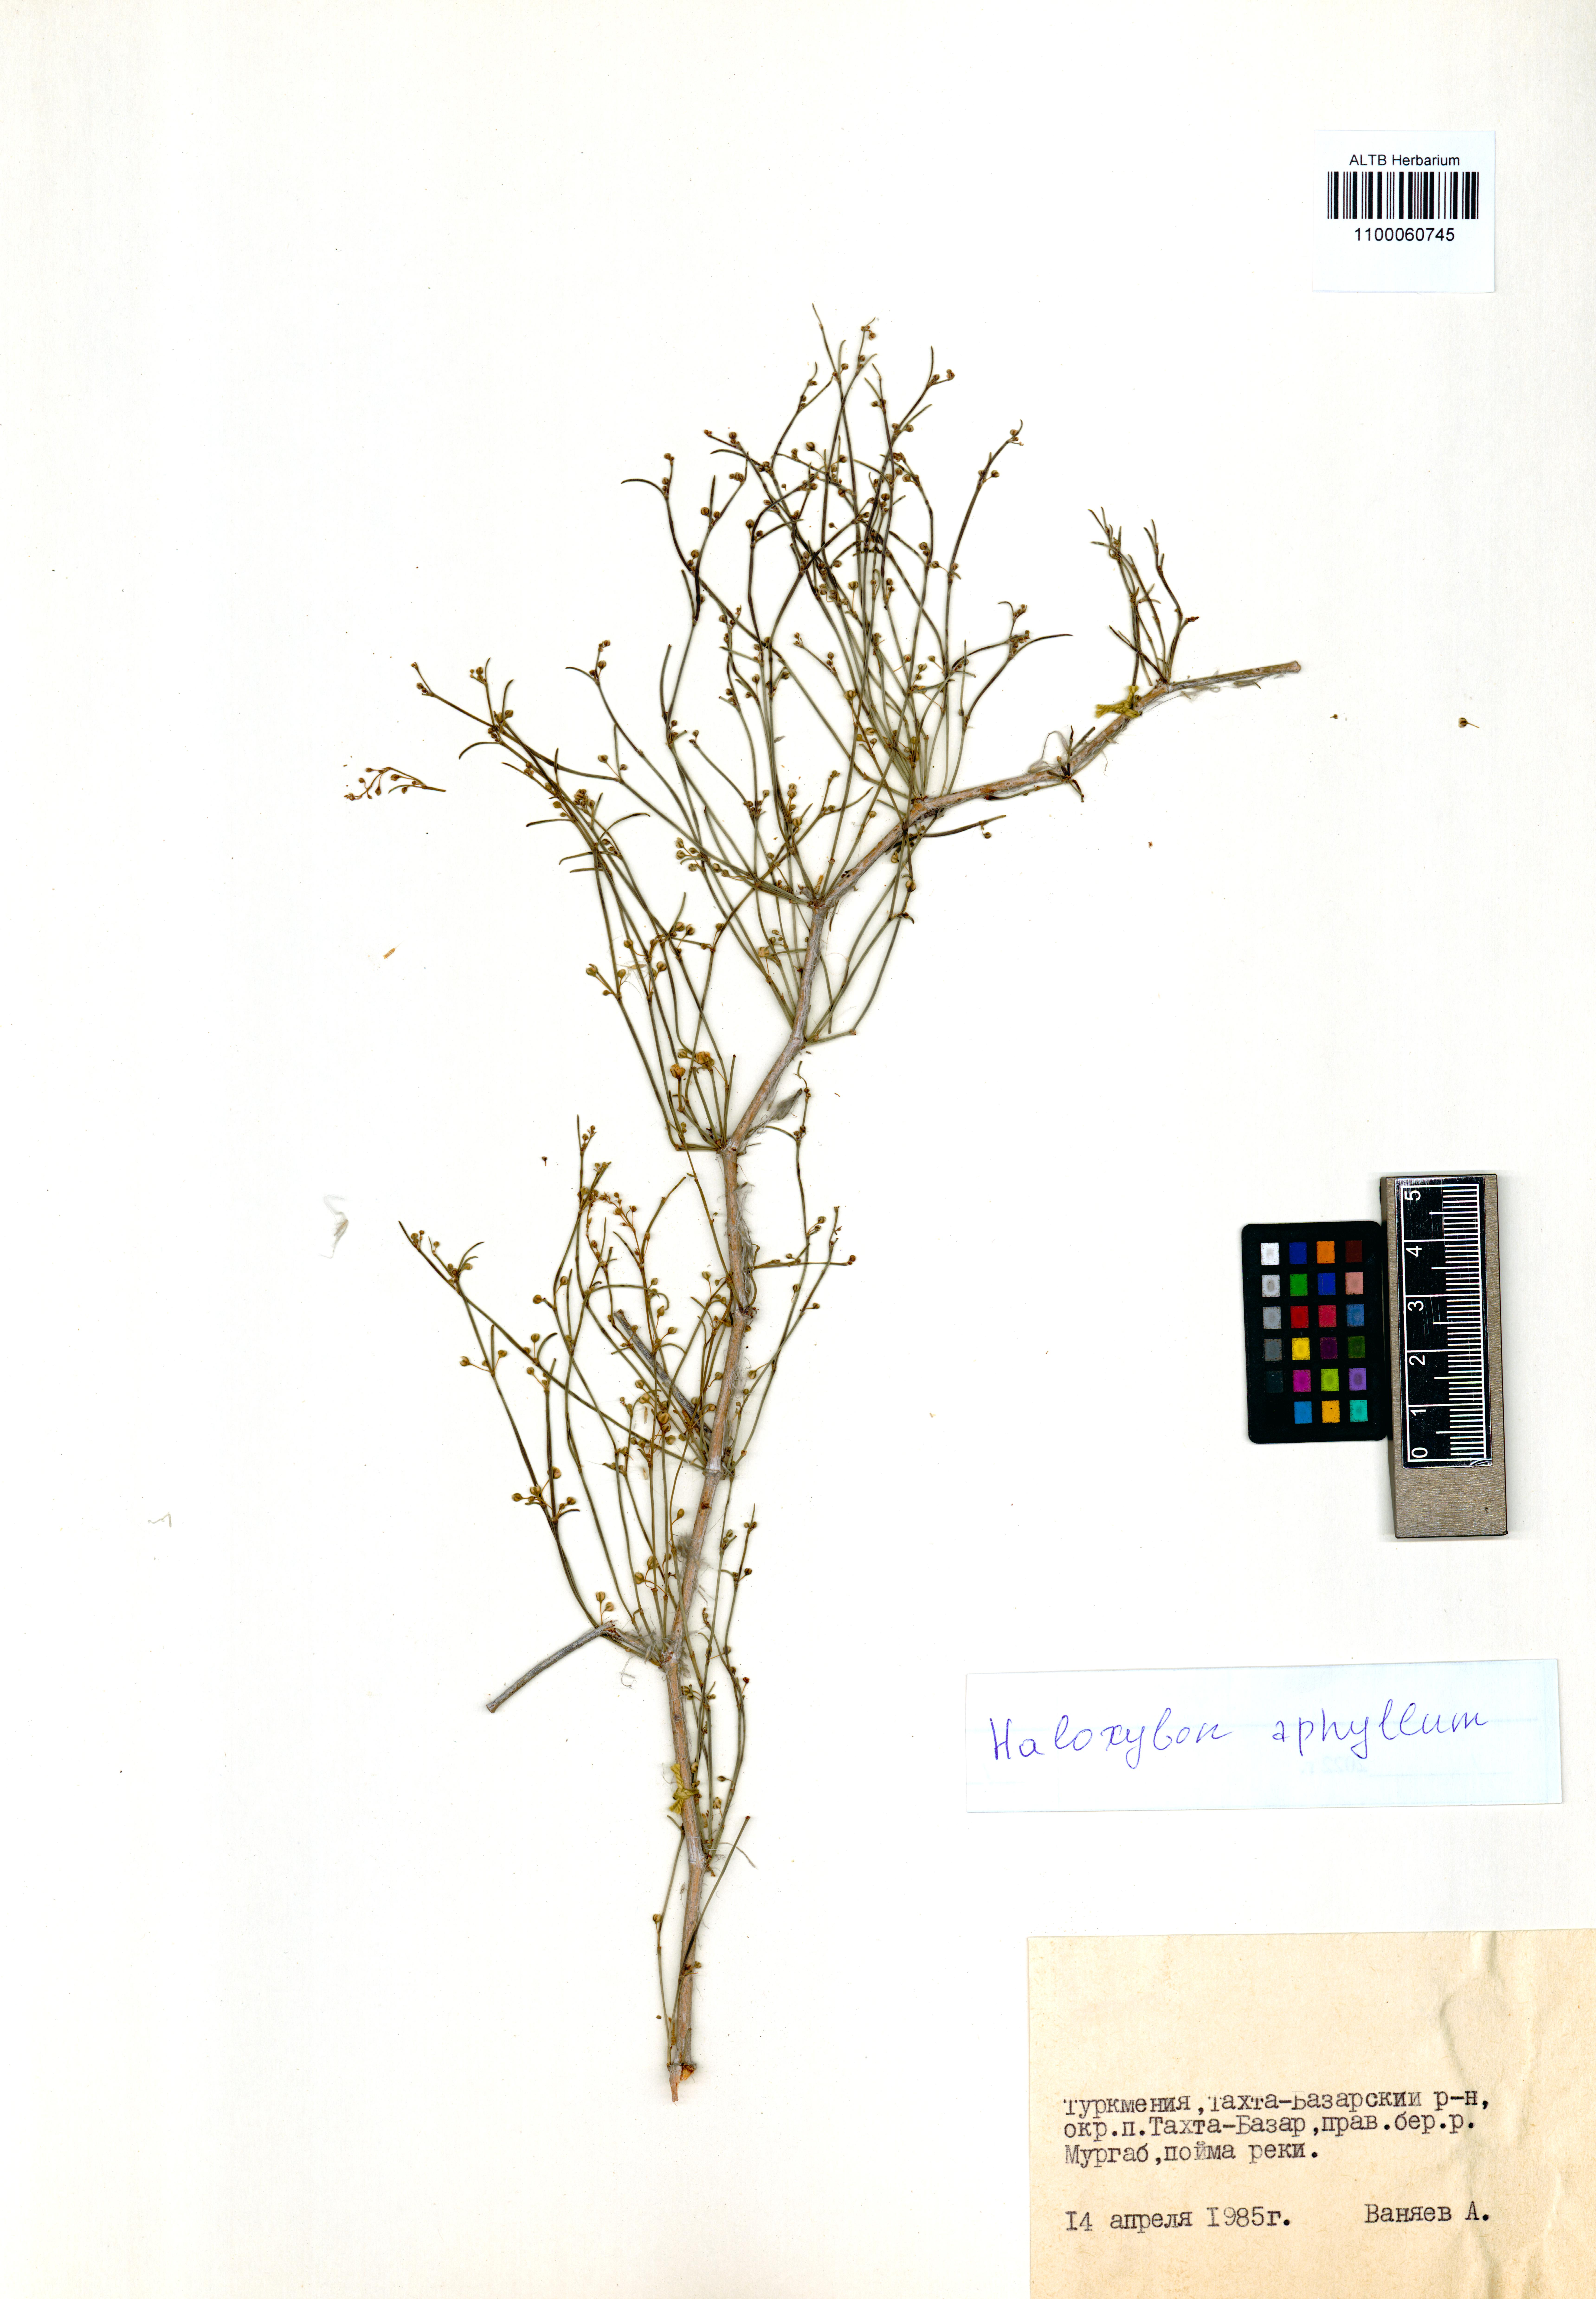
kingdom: Plantae
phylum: Tracheophyta
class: Magnoliopsida
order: Caryophyllales
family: Amaranthaceae
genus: Haloxylon
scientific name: Haloxylon ammodendron
